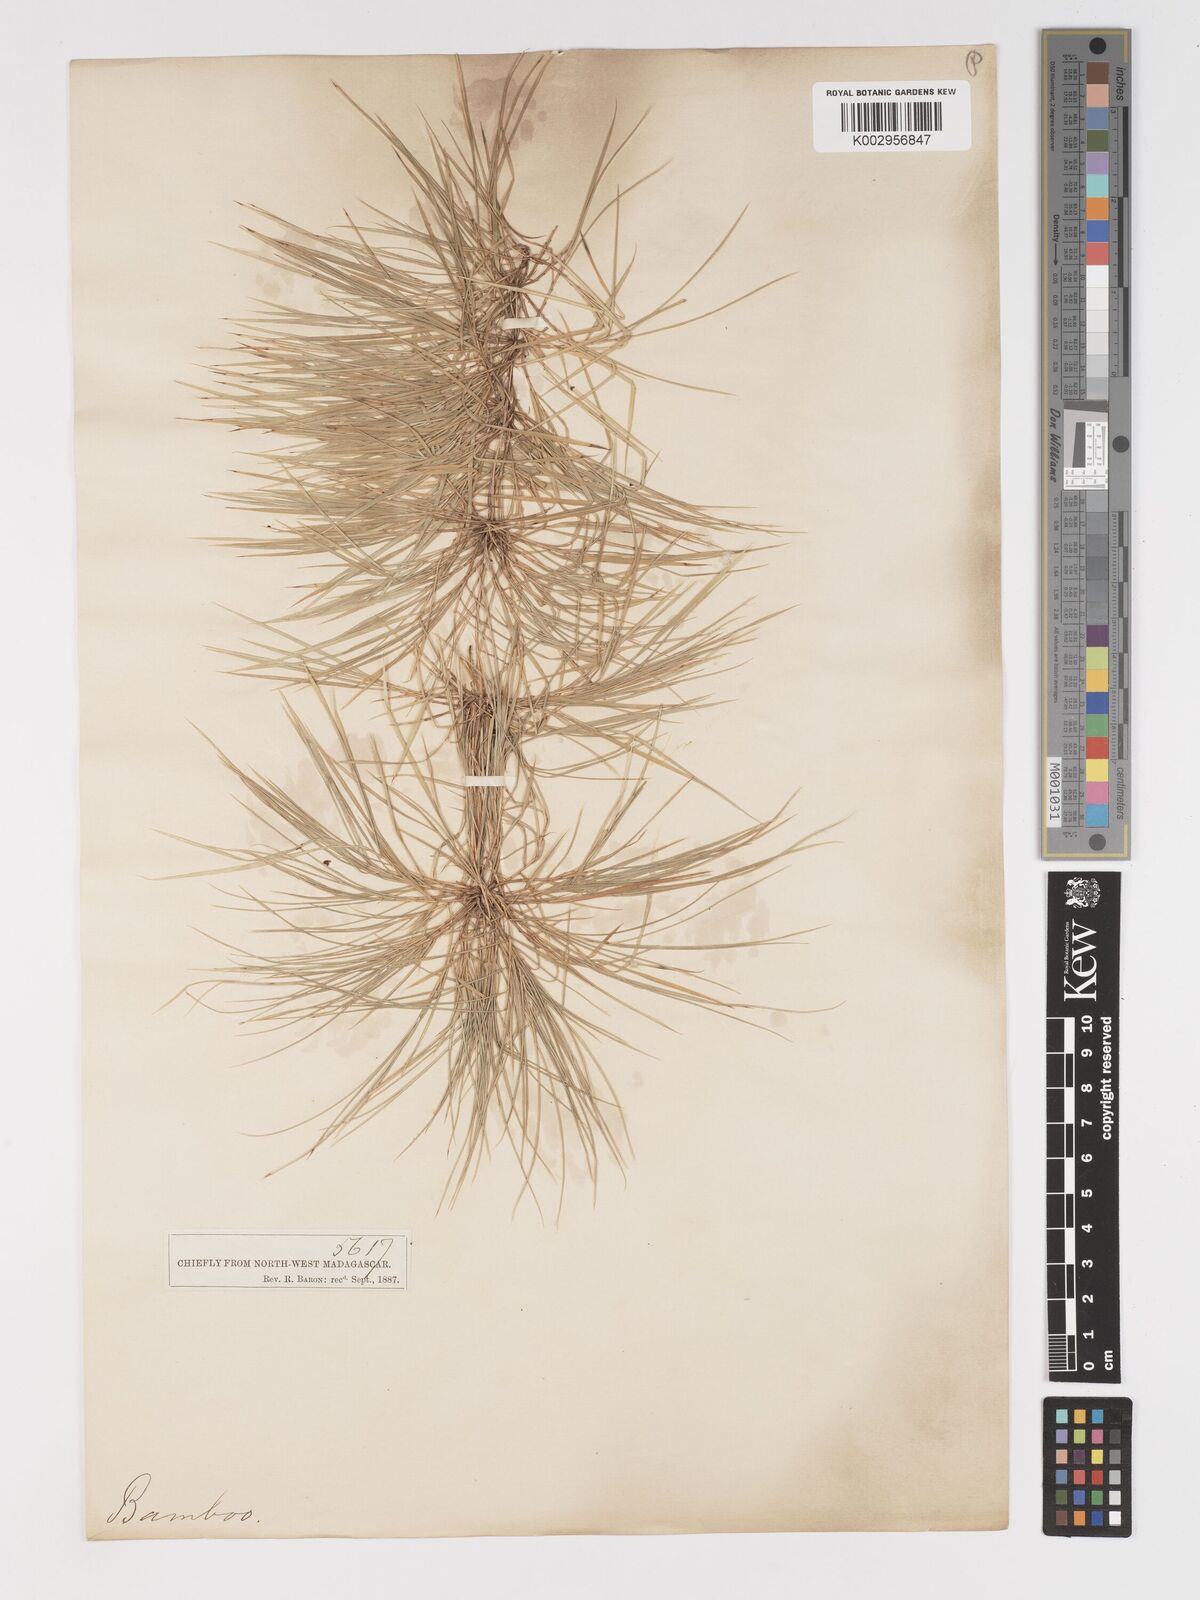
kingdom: Plantae
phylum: Tracheophyta
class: Liliopsida
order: Poales
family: Poaceae
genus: Nastus
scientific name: Nastus aristatus
